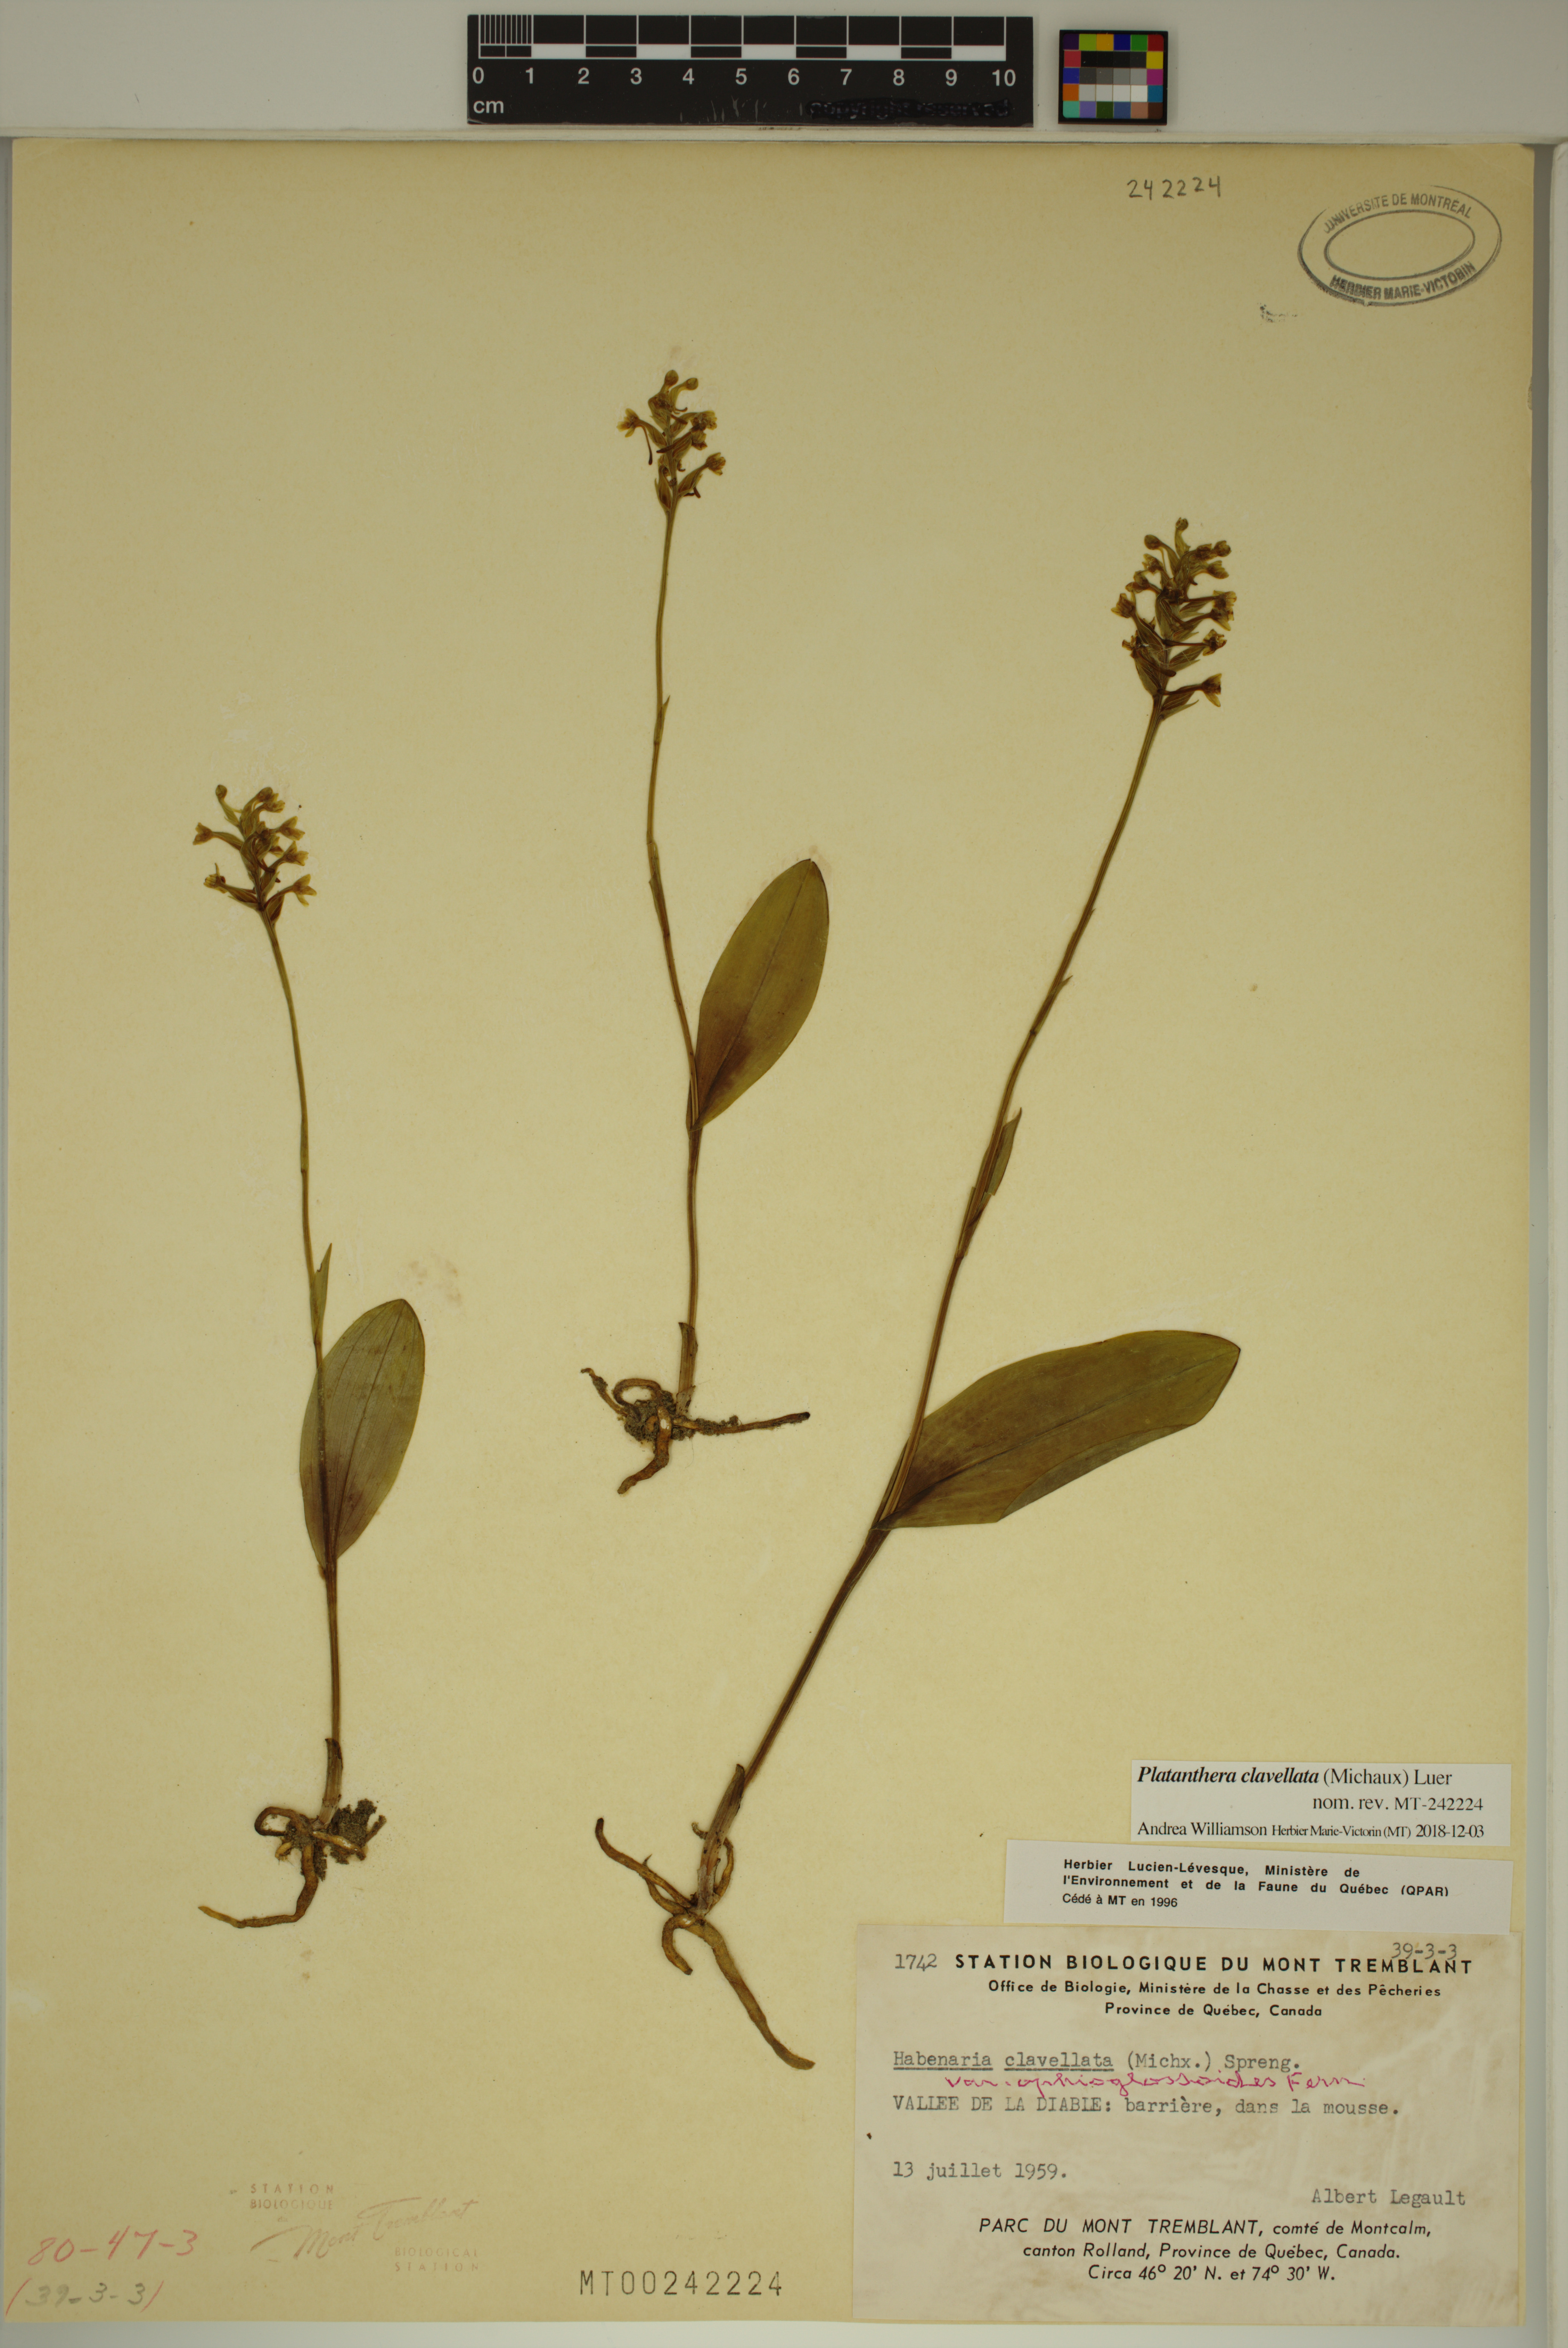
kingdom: Plantae
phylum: Tracheophyta
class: Liliopsida
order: Asparagales
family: Orchidaceae
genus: Platanthera
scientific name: Platanthera clavellata
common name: Club-spur orchid
